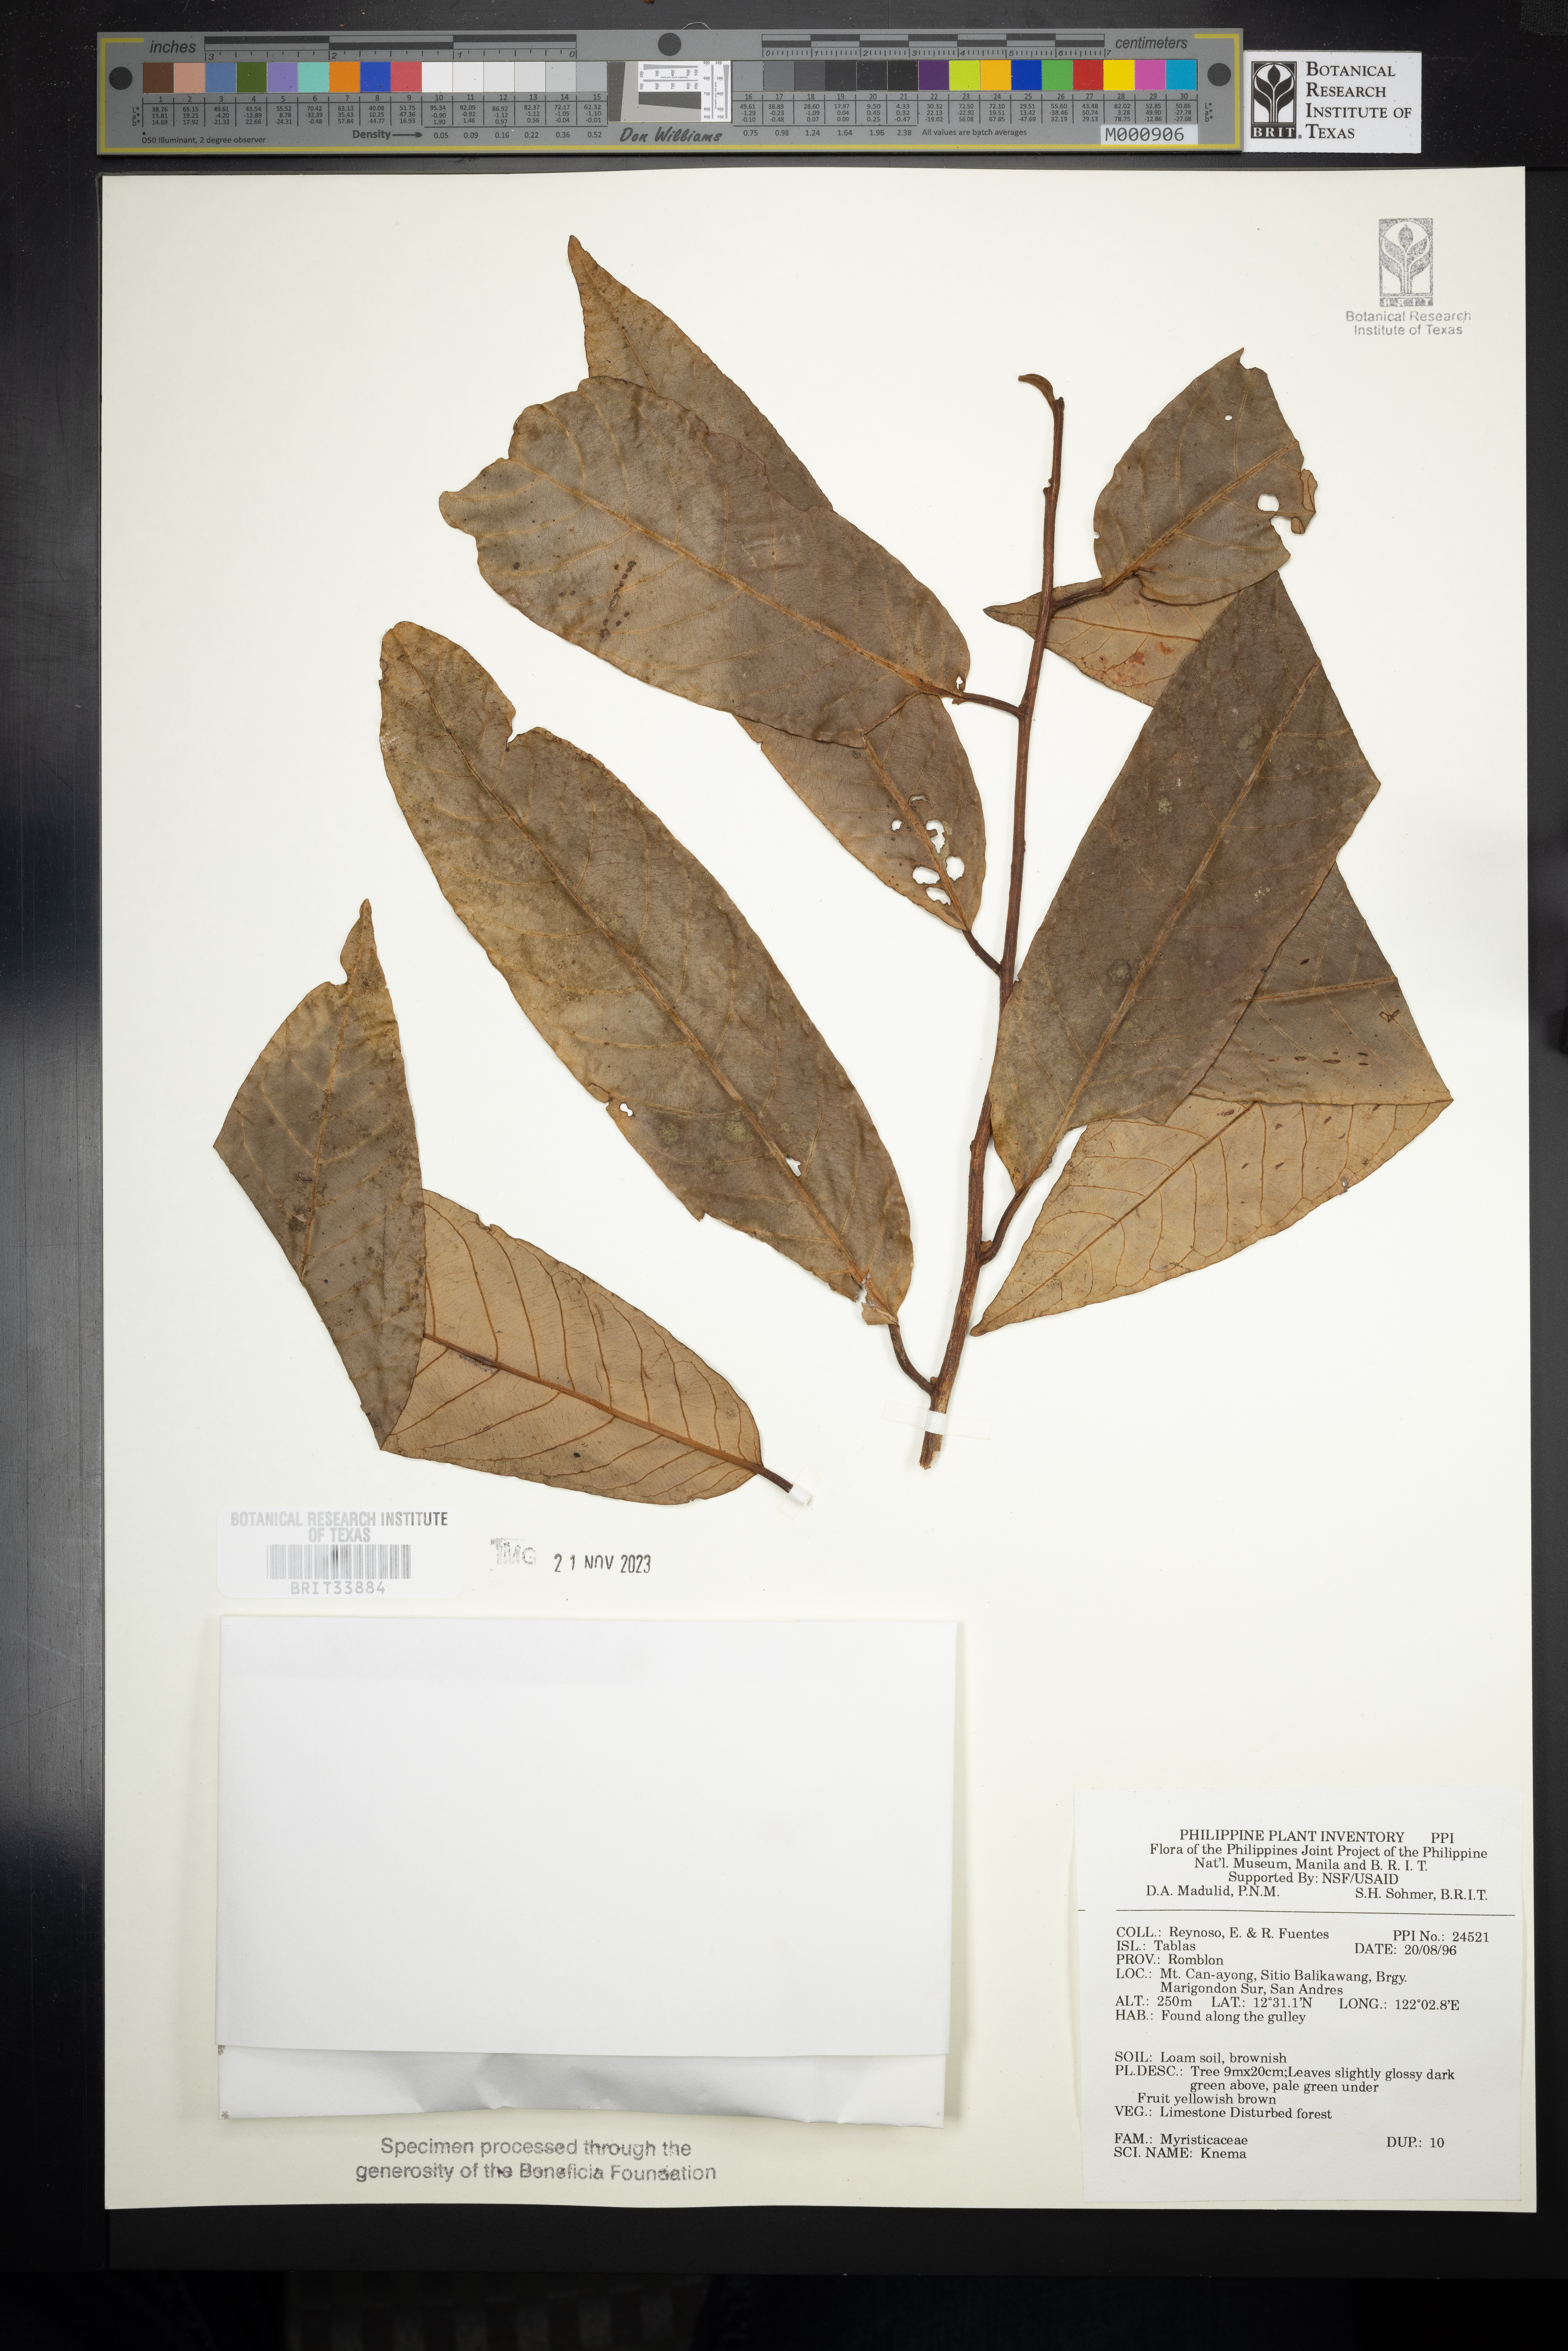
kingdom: Plantae
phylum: Tracheophyta
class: Magnoliopsida
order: Magnoliales
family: Myristicaceae
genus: Knema
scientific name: Knema
